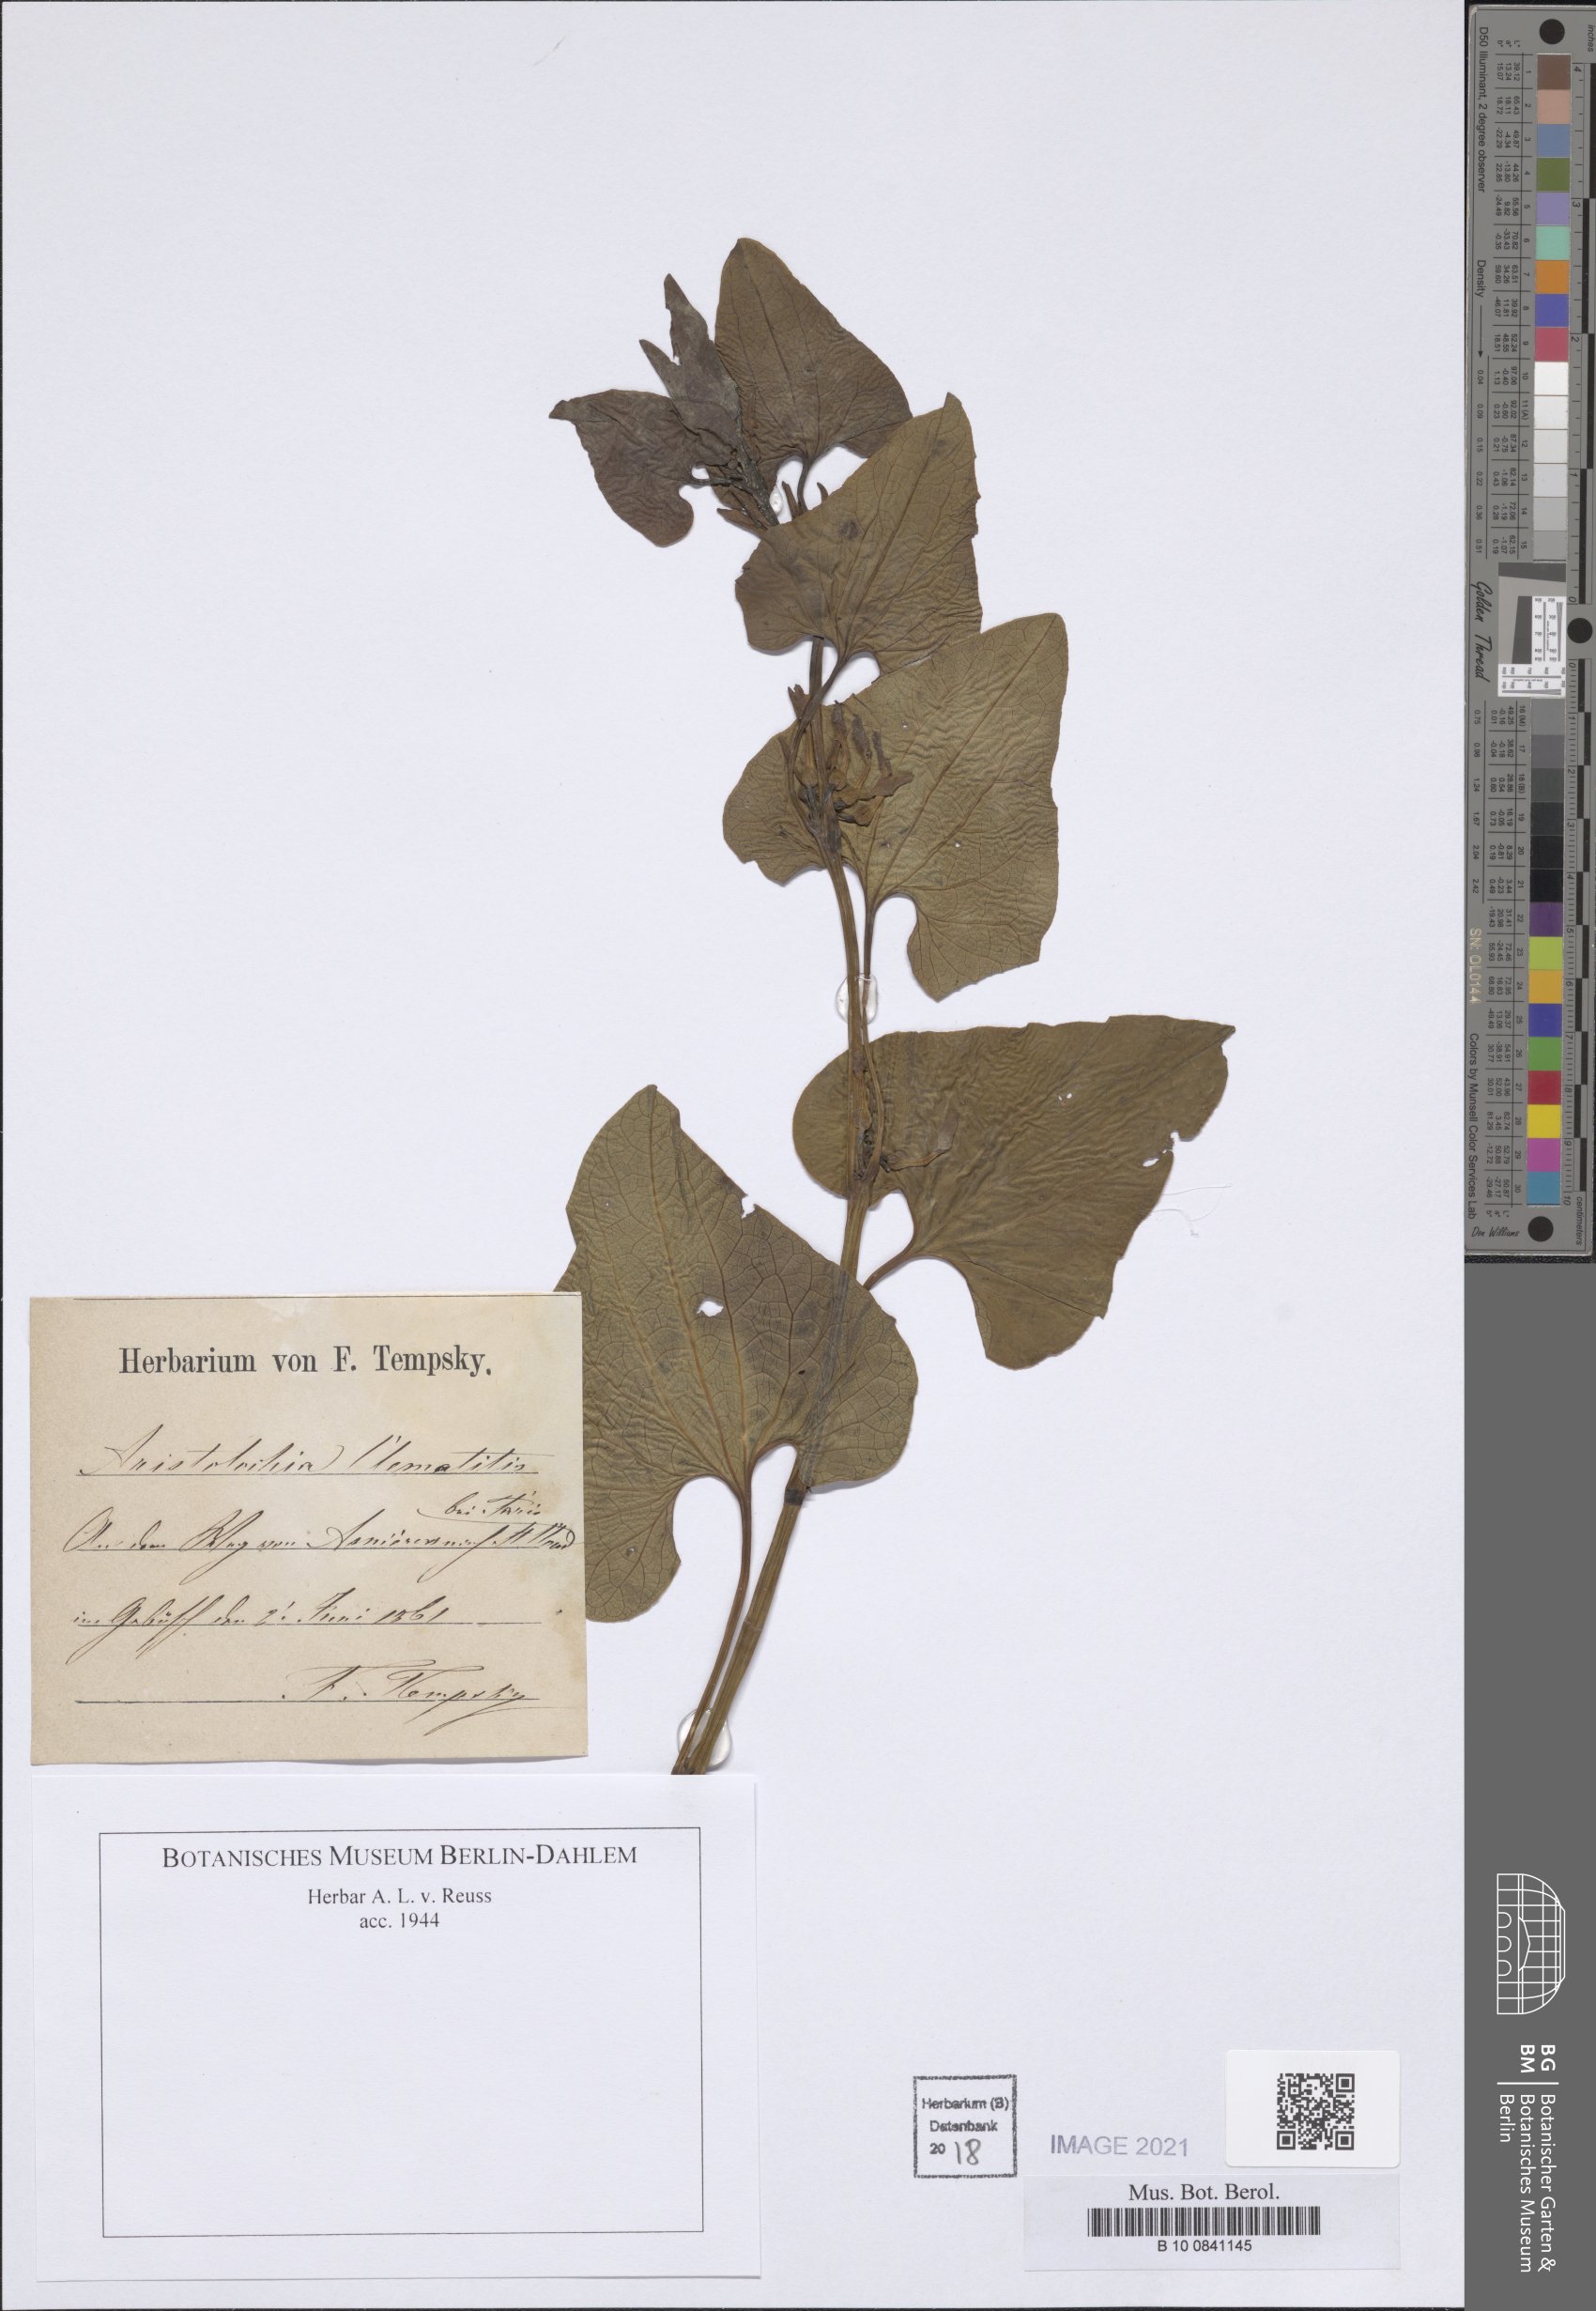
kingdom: Plantae
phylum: Tracheophyta
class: Magnoliopsida
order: Piperales
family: Aristolochiaceae
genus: Aristolochia
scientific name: Aristolochia clematitis
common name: Birthwort
